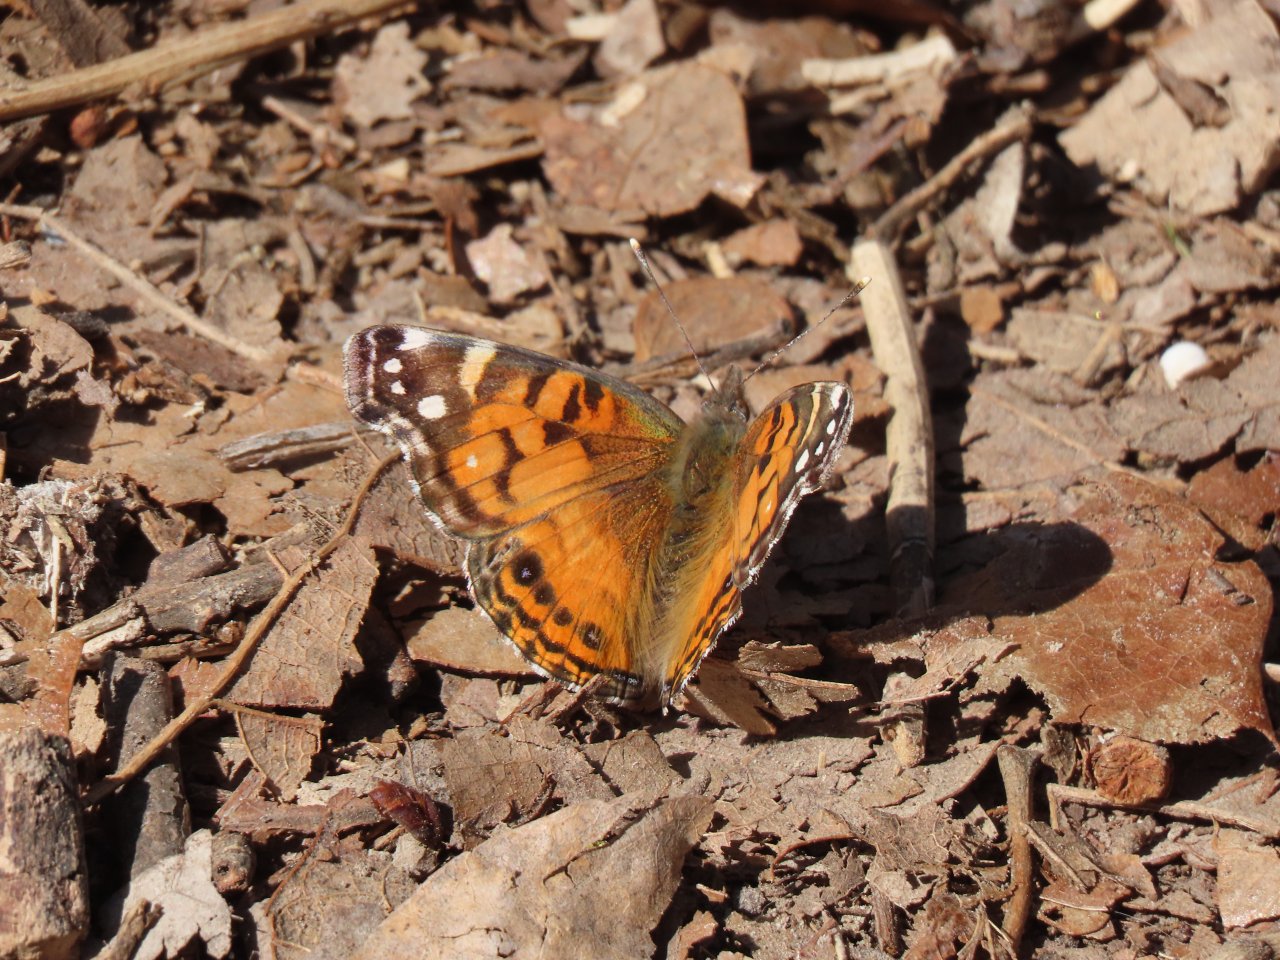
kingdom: Animalia
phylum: Arthropoda
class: Insecta
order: Lepidoptera
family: Nymphalidae
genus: Vanessa
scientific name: Vanessa virginiensis
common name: American Lady
